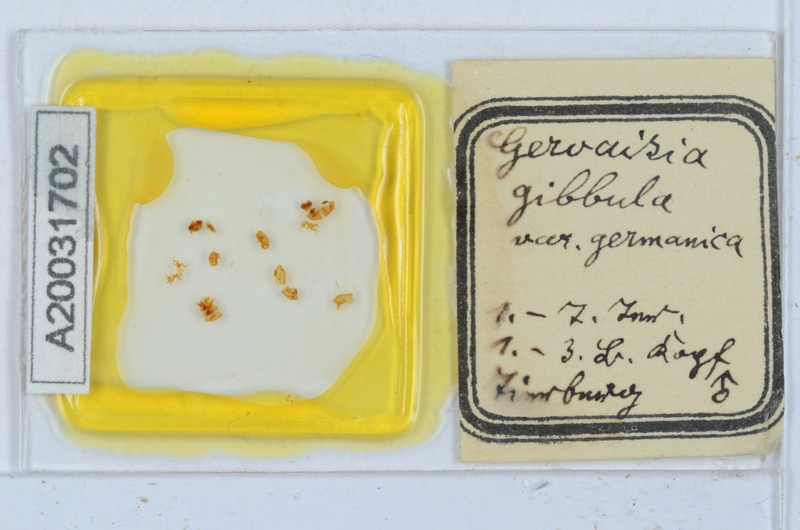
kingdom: Animalia
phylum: Arthropoda
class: Diplopoda
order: Glomerida
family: Glomeridae
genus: Trachysphaera
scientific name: Trachysphaera gibbula
